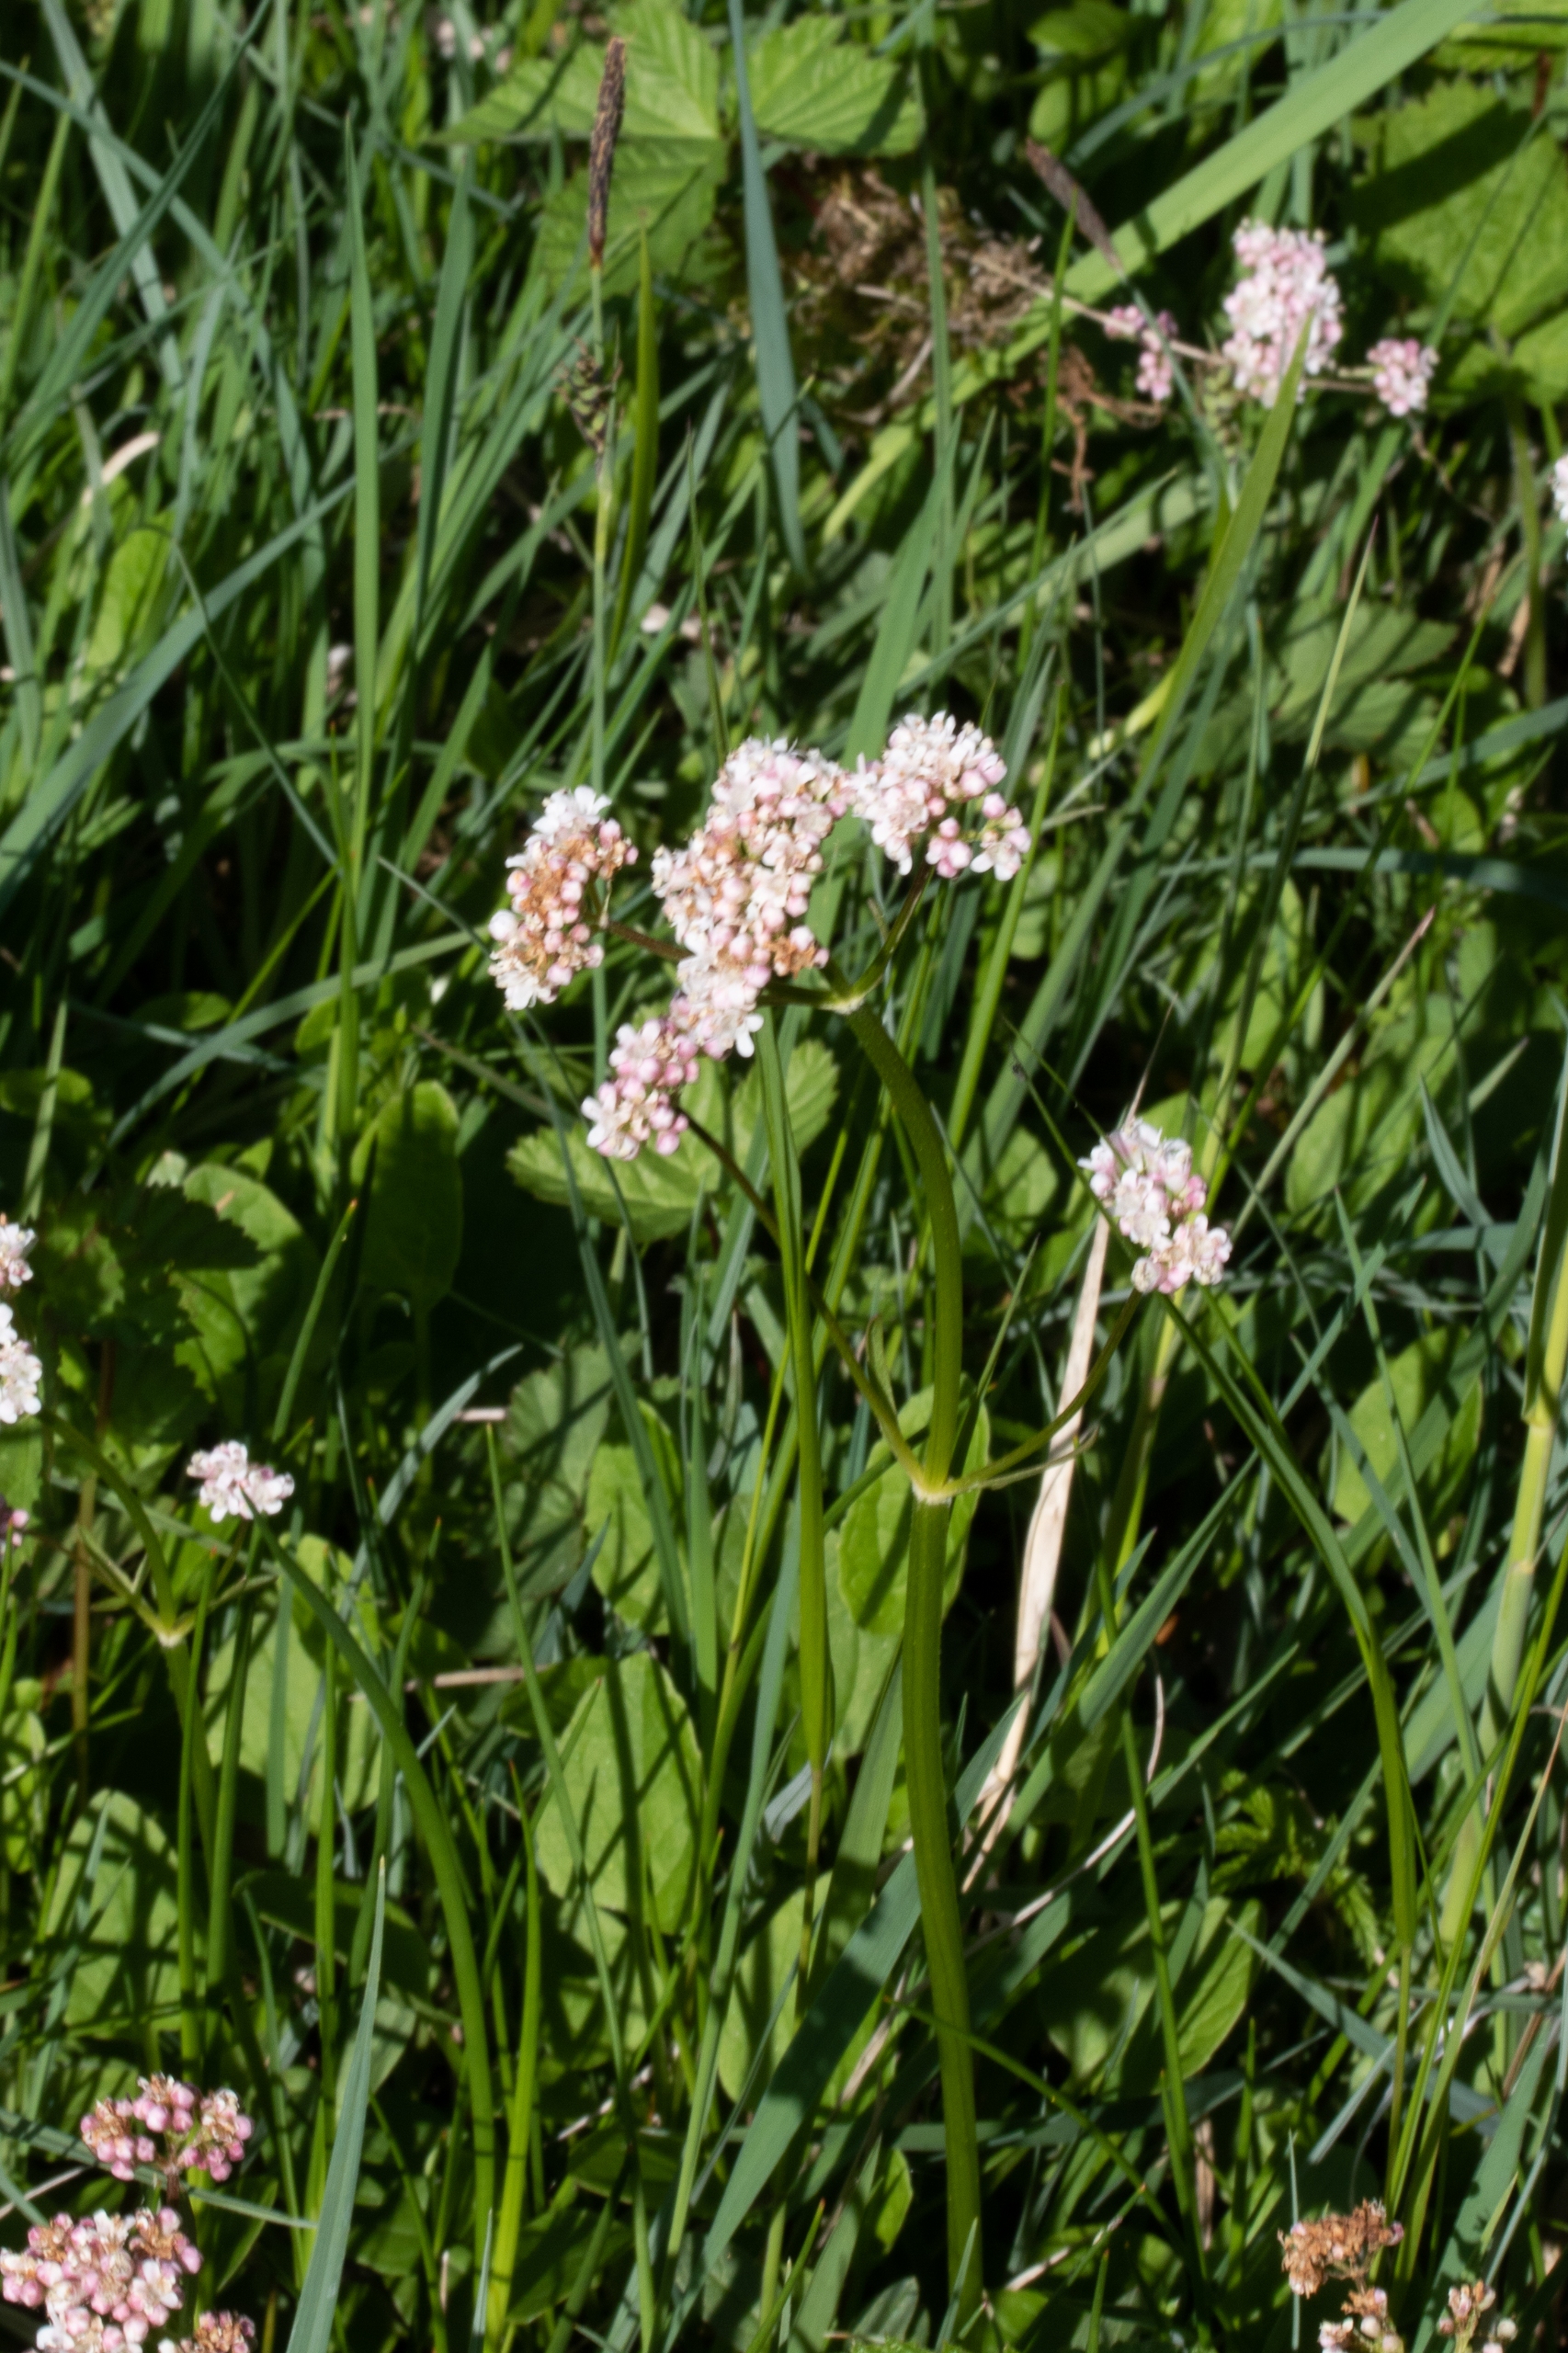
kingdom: Plantae
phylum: Tracheophyta
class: Magnoliopsida
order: Dipsacales
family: Caprifoliaceae
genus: Valeriana
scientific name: Valeriana dioica
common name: Tvebo baldrian
